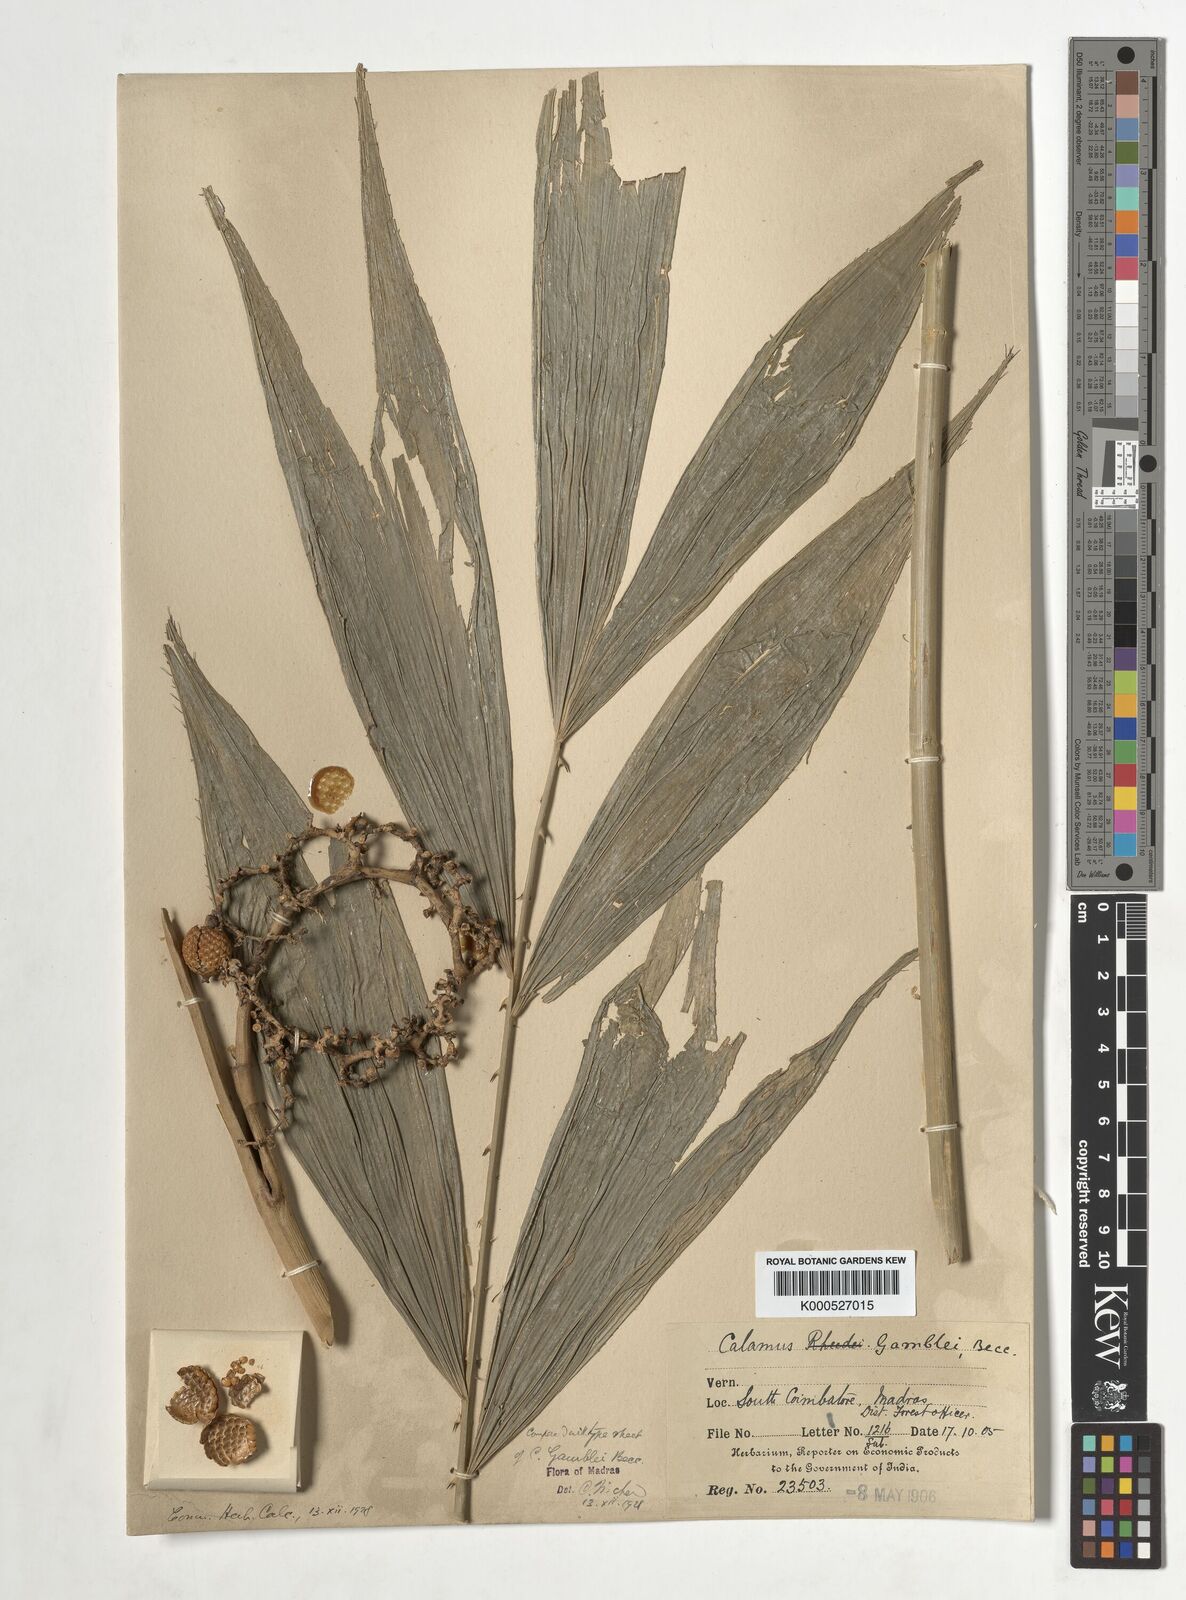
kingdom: Plantae
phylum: Tracheophyta
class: Liliopsida
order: Arecales
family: Arecaceae
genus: Calamus
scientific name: Calamus gamblei
